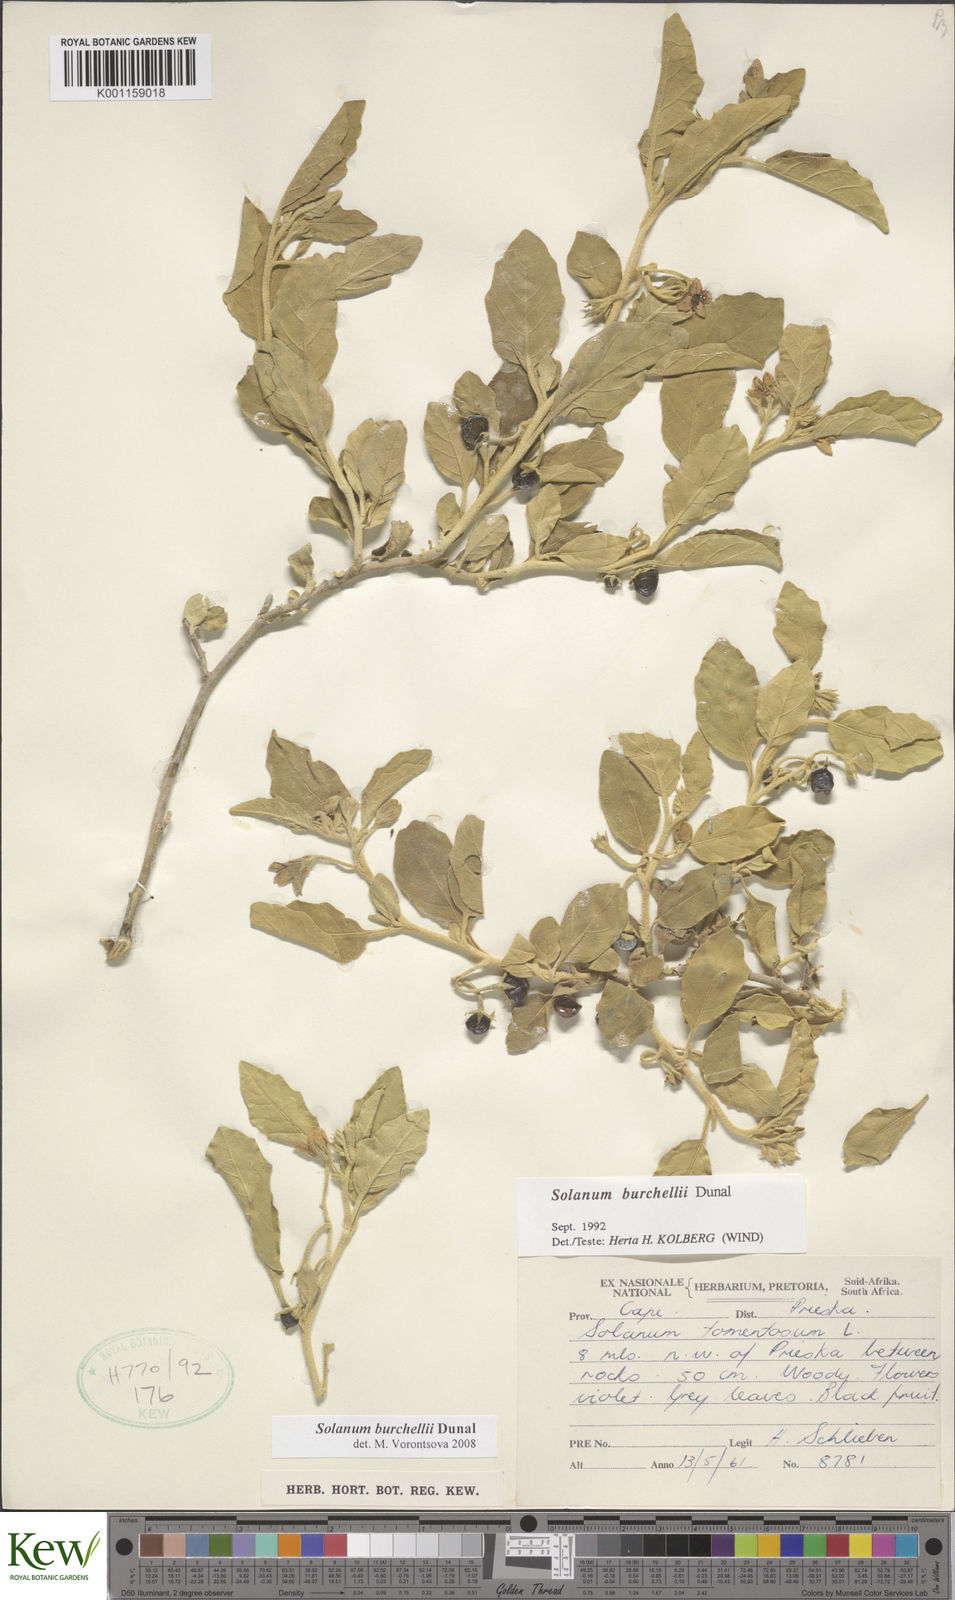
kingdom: Plantae
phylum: Tracheophyta
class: Magnoliopsida
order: Solanales
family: Solanaceae
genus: Solanum
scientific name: Solanum burchellii
